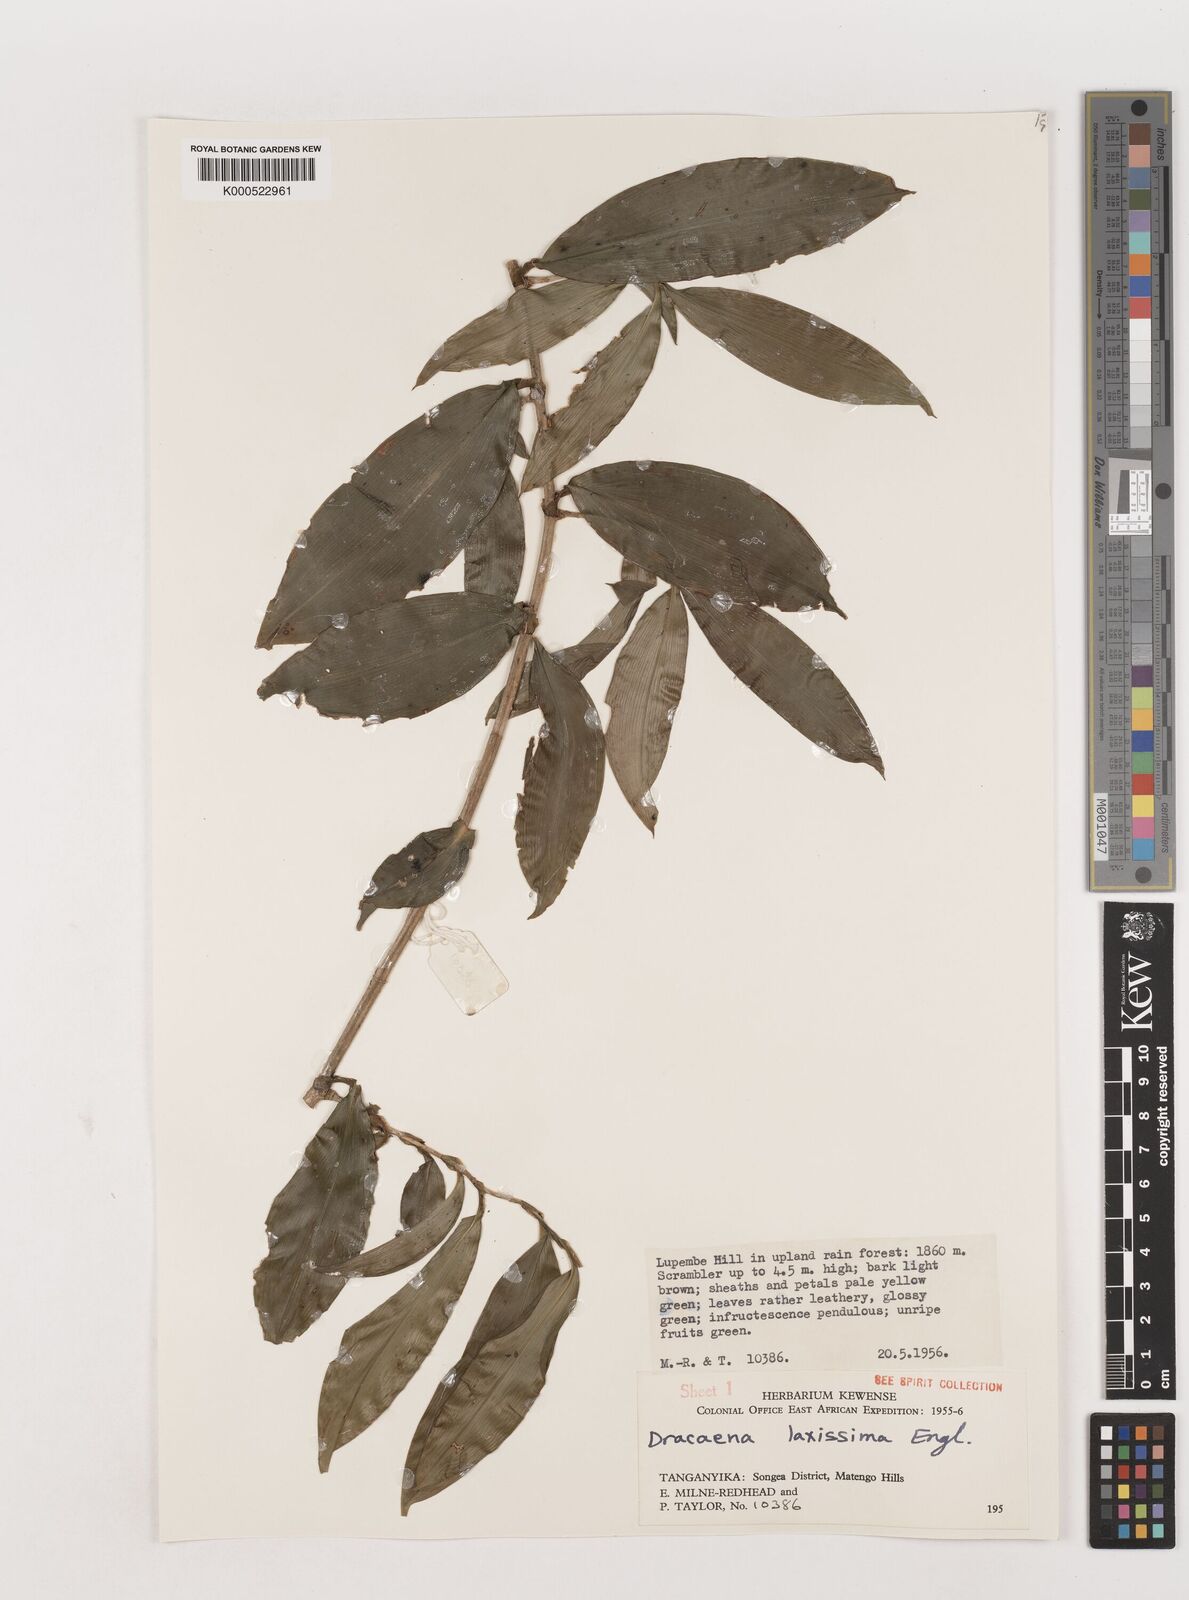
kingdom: Plantae
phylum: Tracheophyta
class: Liliopsida
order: Asparagales
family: Asparagaceae
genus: Dracaena
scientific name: Dracaena laxissima
